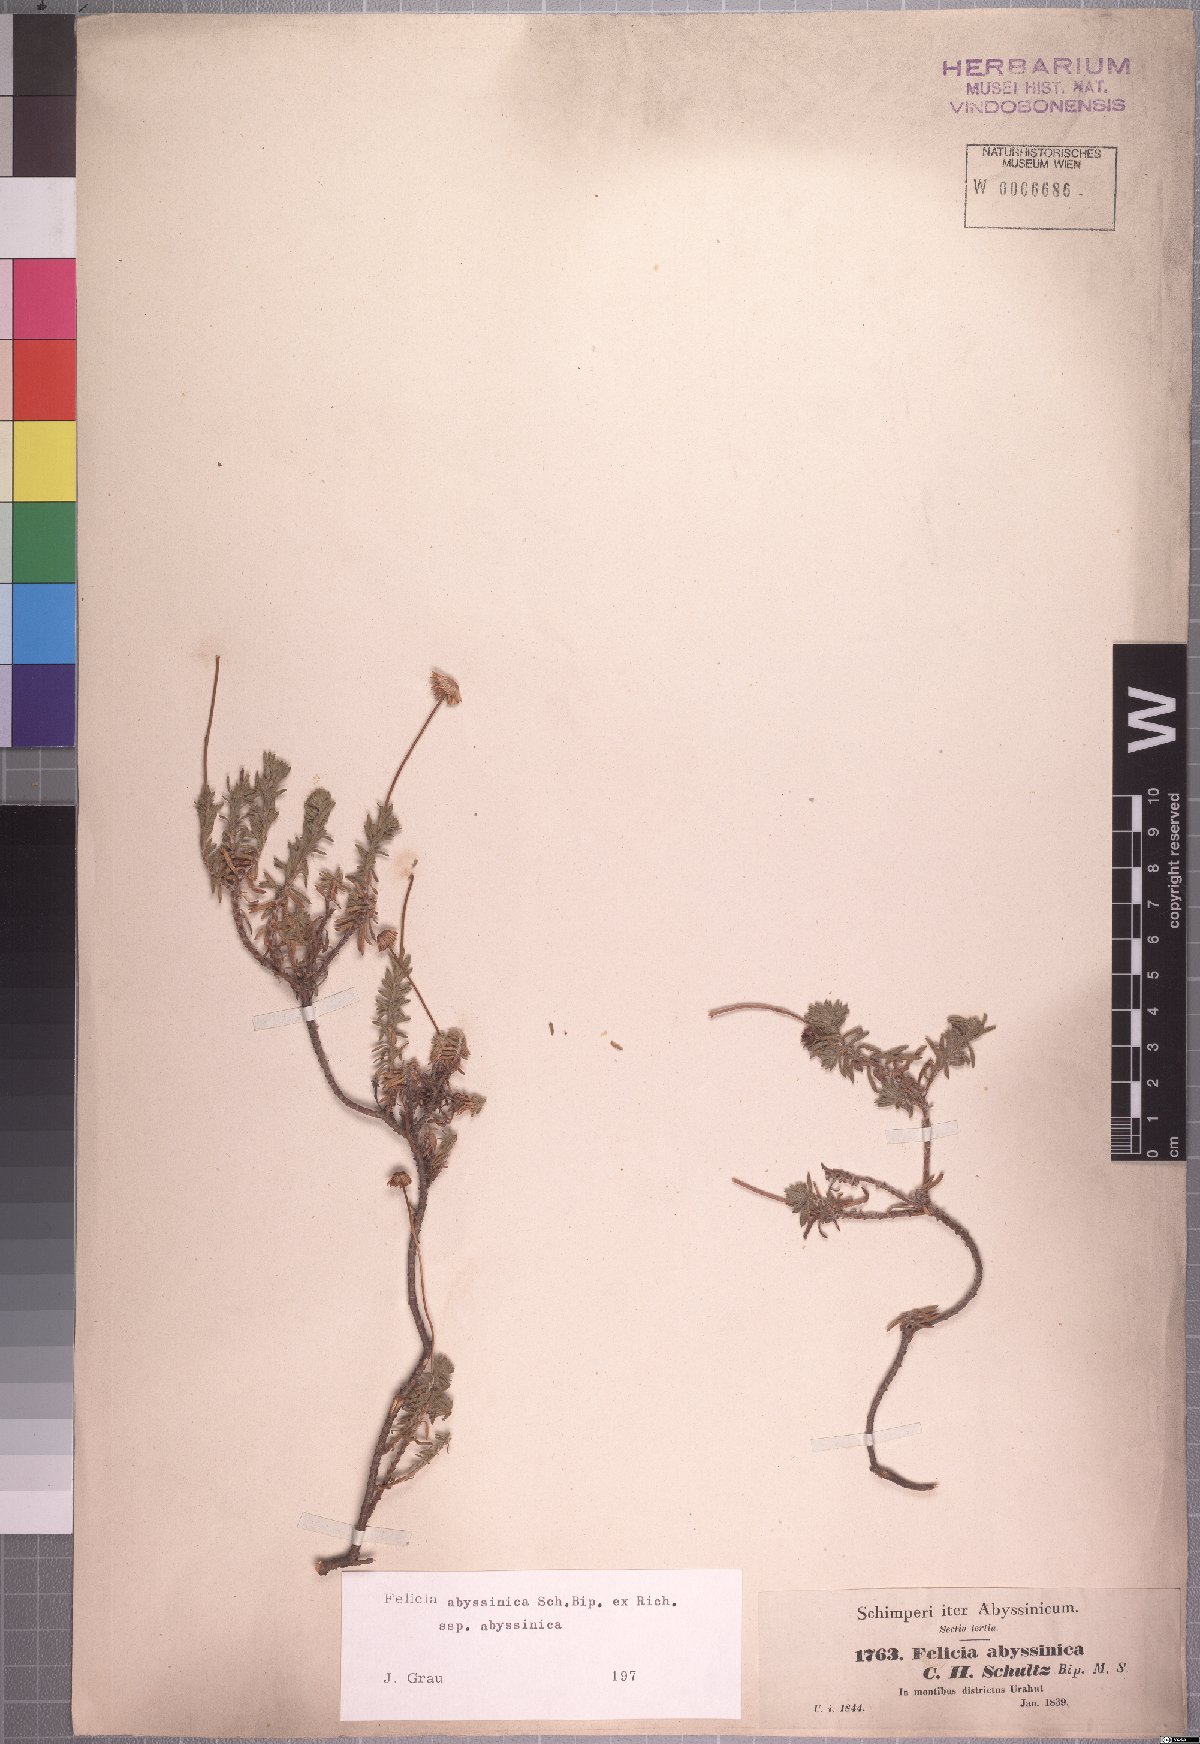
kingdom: Plantae
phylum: Tracheophyta
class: Magnoliopsida
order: Asterales
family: Asteraceae
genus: Felicia
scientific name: Felicia abyssinica
